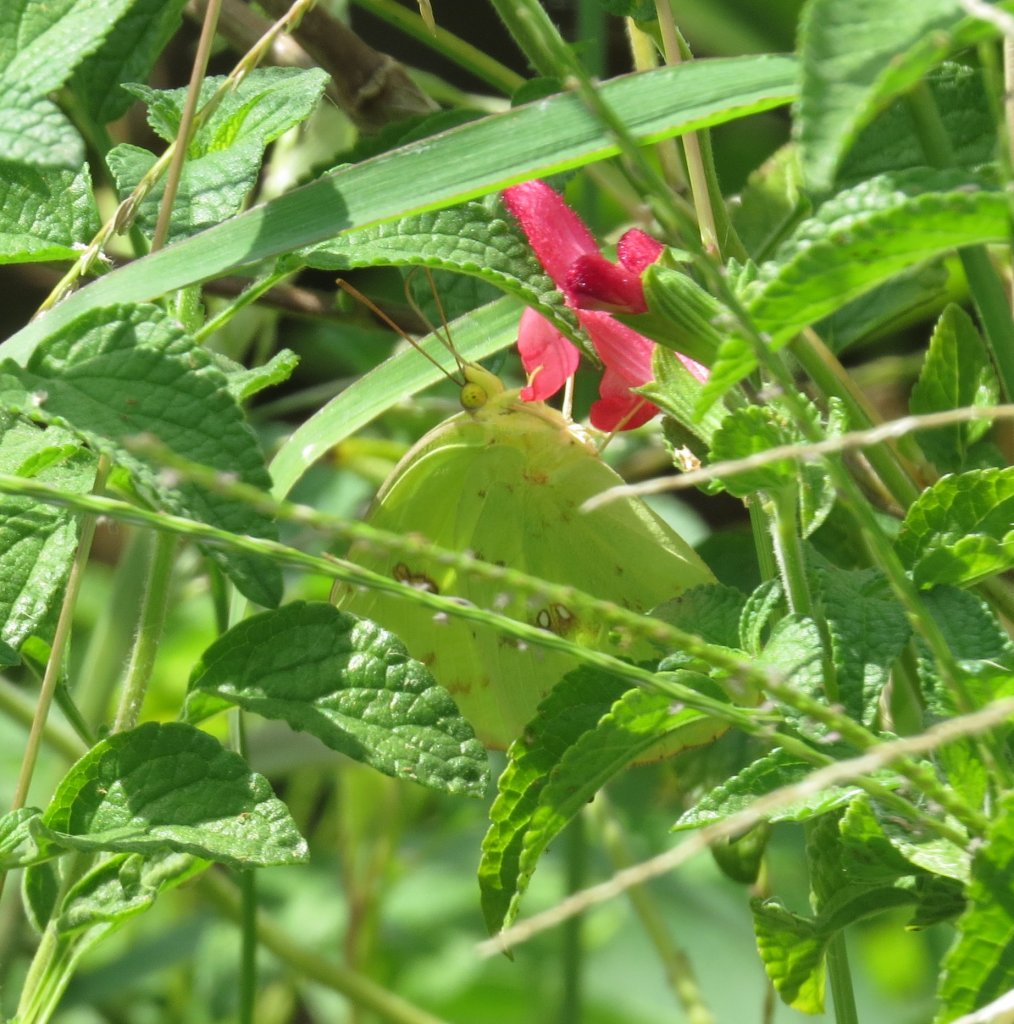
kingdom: Animalia
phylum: Arthropoda
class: Insecta
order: Lepidoptera
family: Pieridae
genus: Phoebis
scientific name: Phoebis sennae
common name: Cloudless Sulphur
